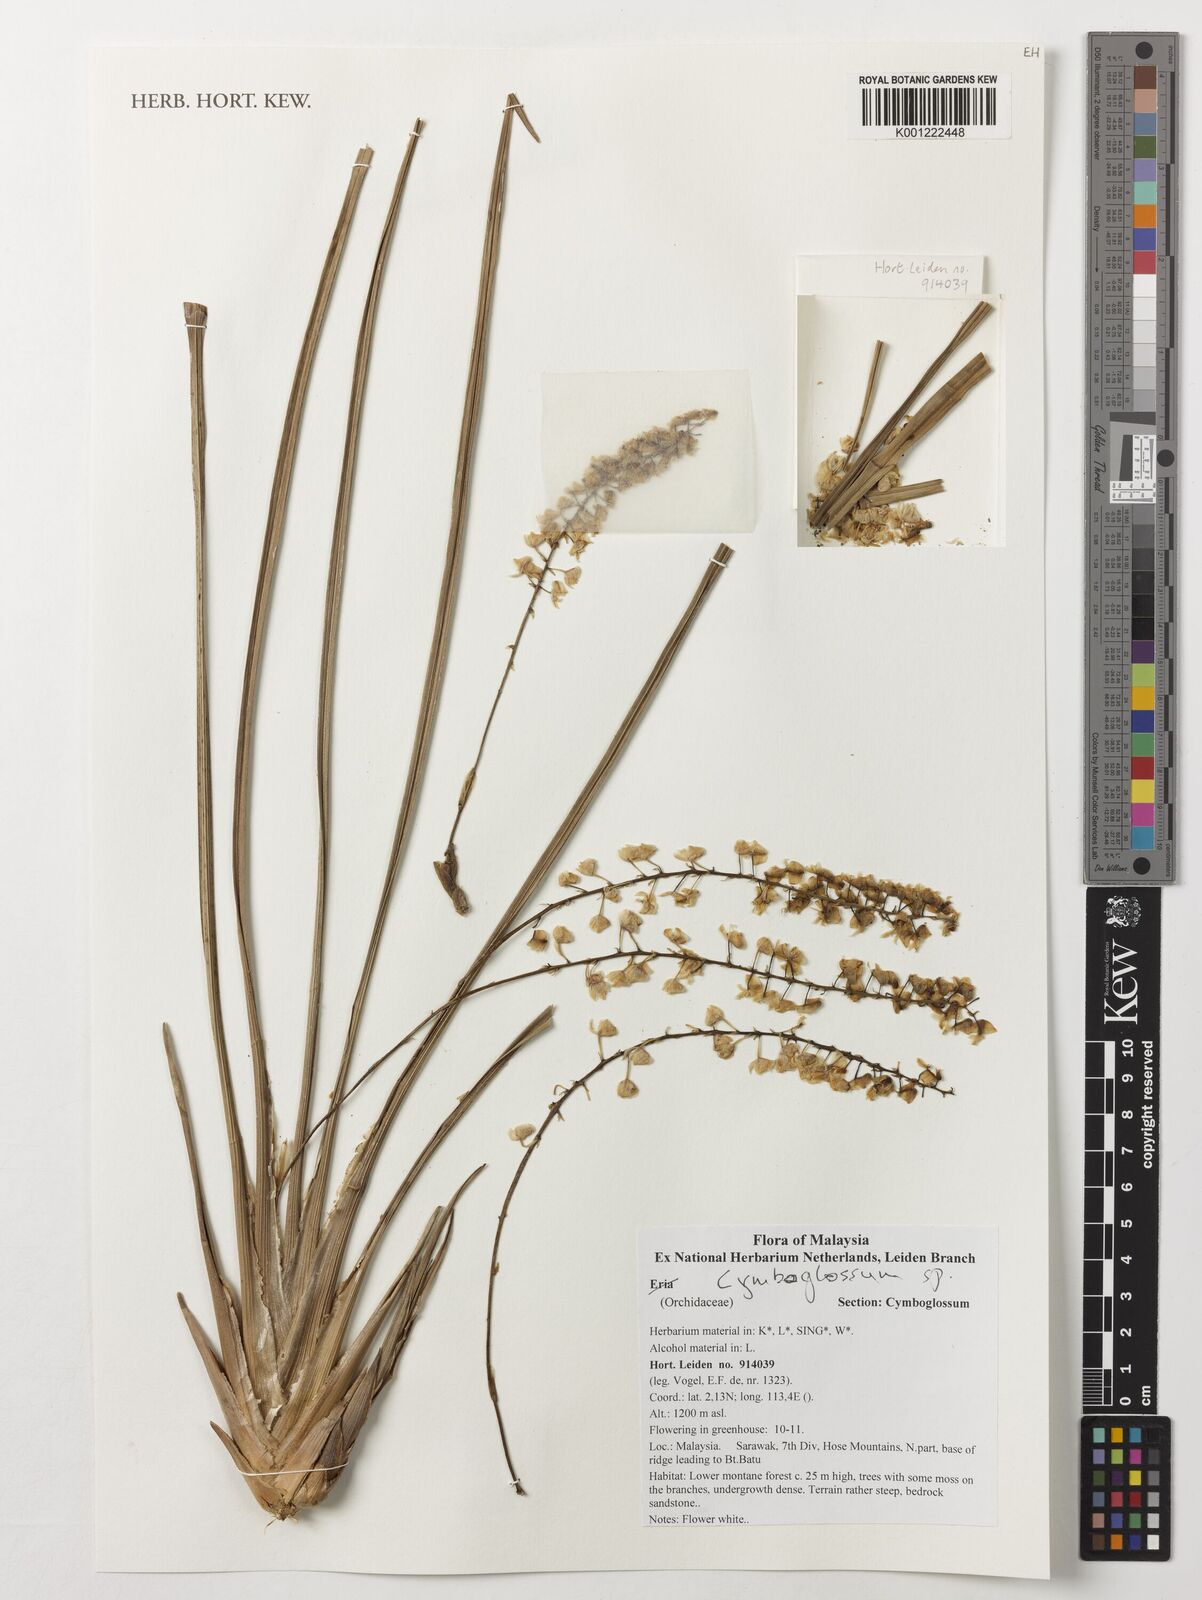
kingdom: Plantae
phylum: Tracheophyta
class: Liliopsida
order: Asparagales
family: Orchidaceae
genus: Cymboglossum
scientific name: Cymboglossum
